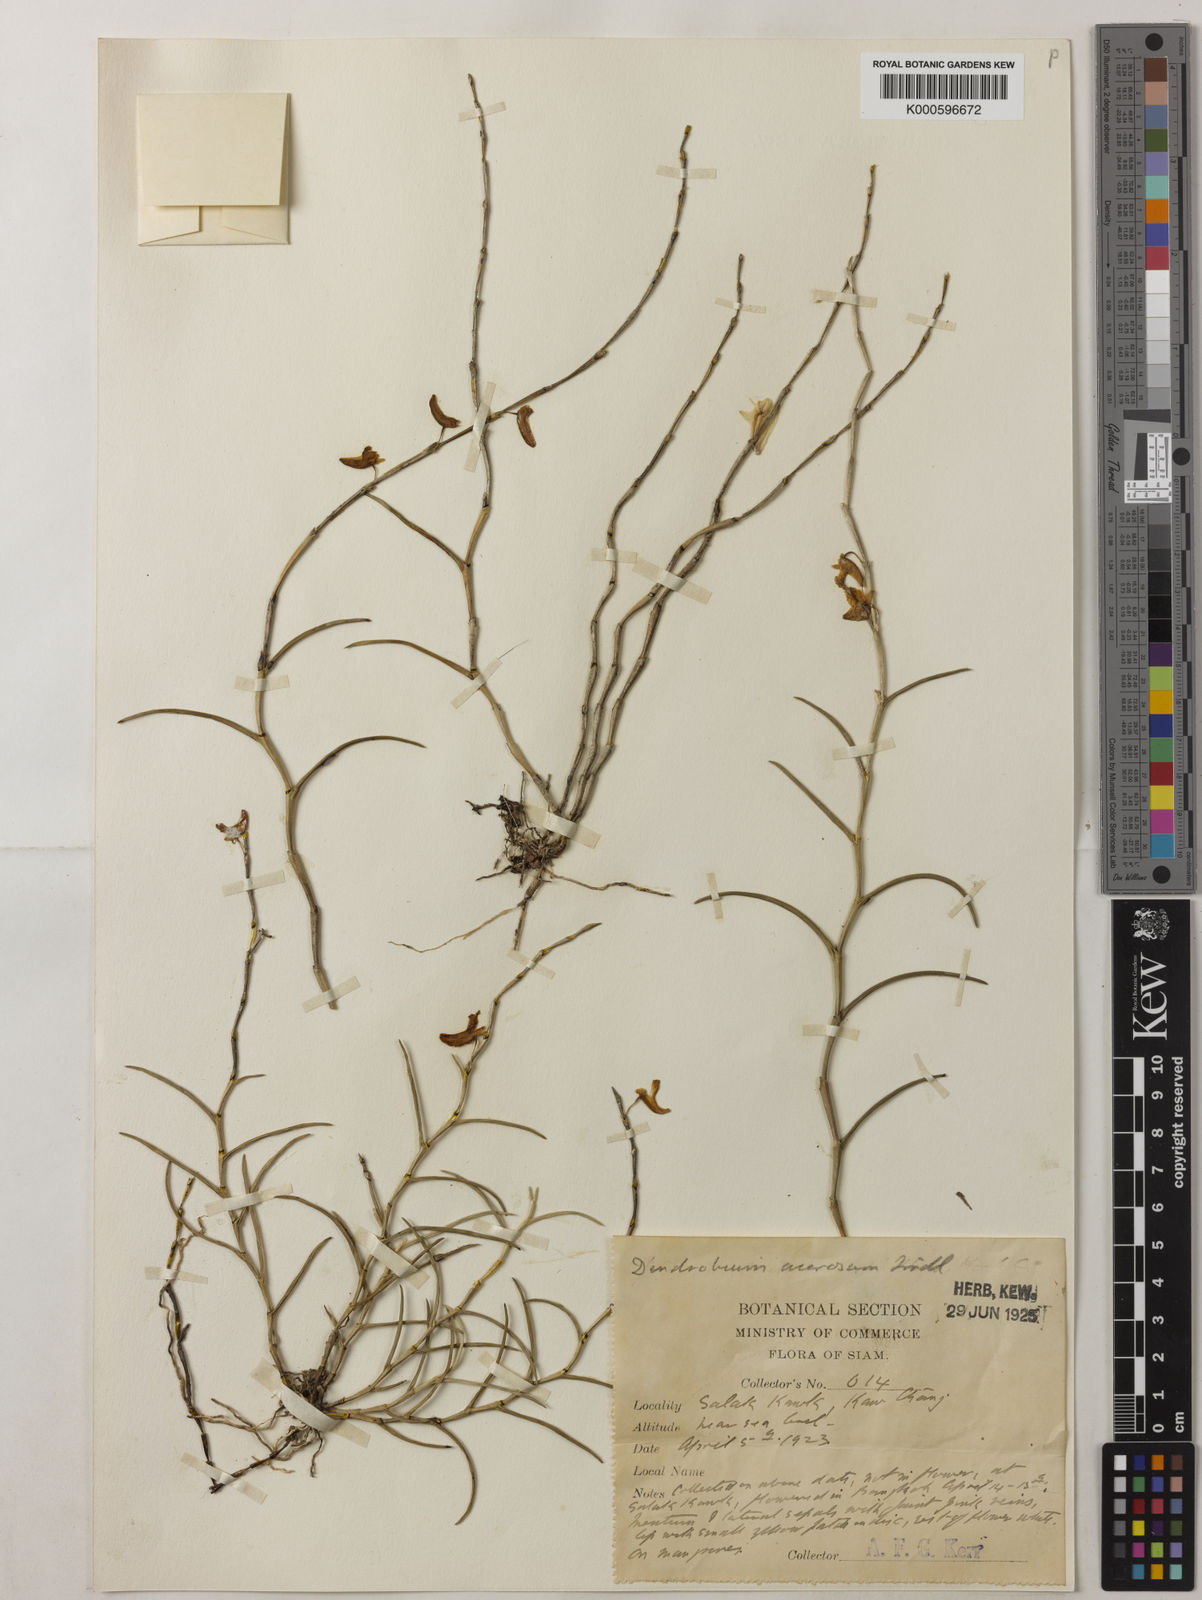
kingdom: Plantae
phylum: Tracheophyta
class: Liliopsida
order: Asparagales
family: Orchidaceae
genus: Dendrobium
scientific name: Dendrobium acerosum
